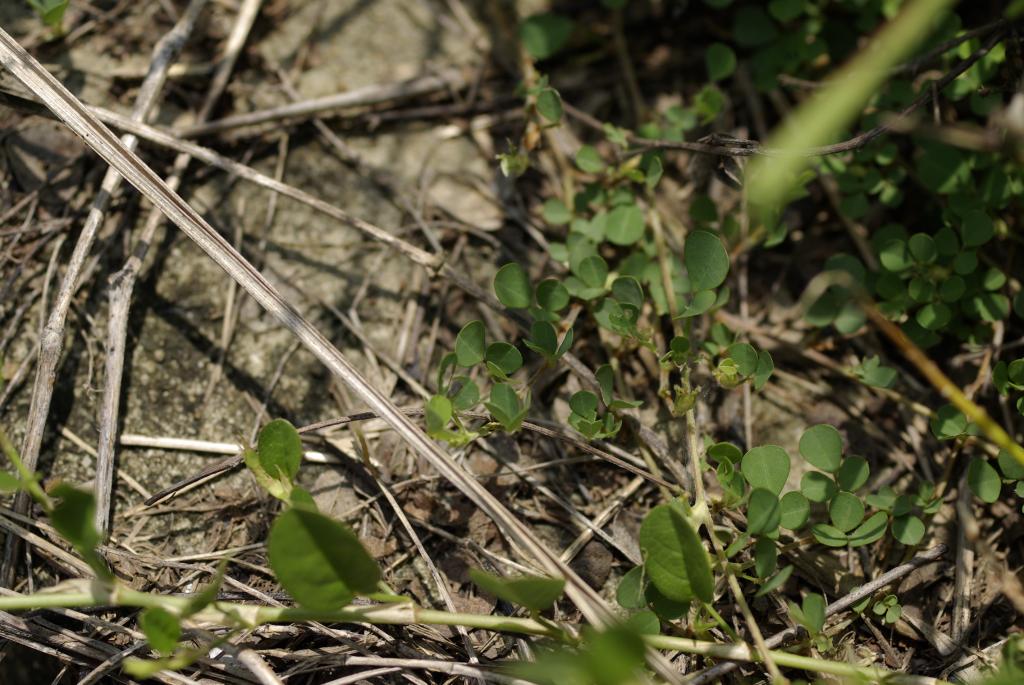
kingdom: Plantae
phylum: Tracheophyta
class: Magnoliopsida
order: Fabales
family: Fabaceae
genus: Grona
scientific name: Grona triflora
